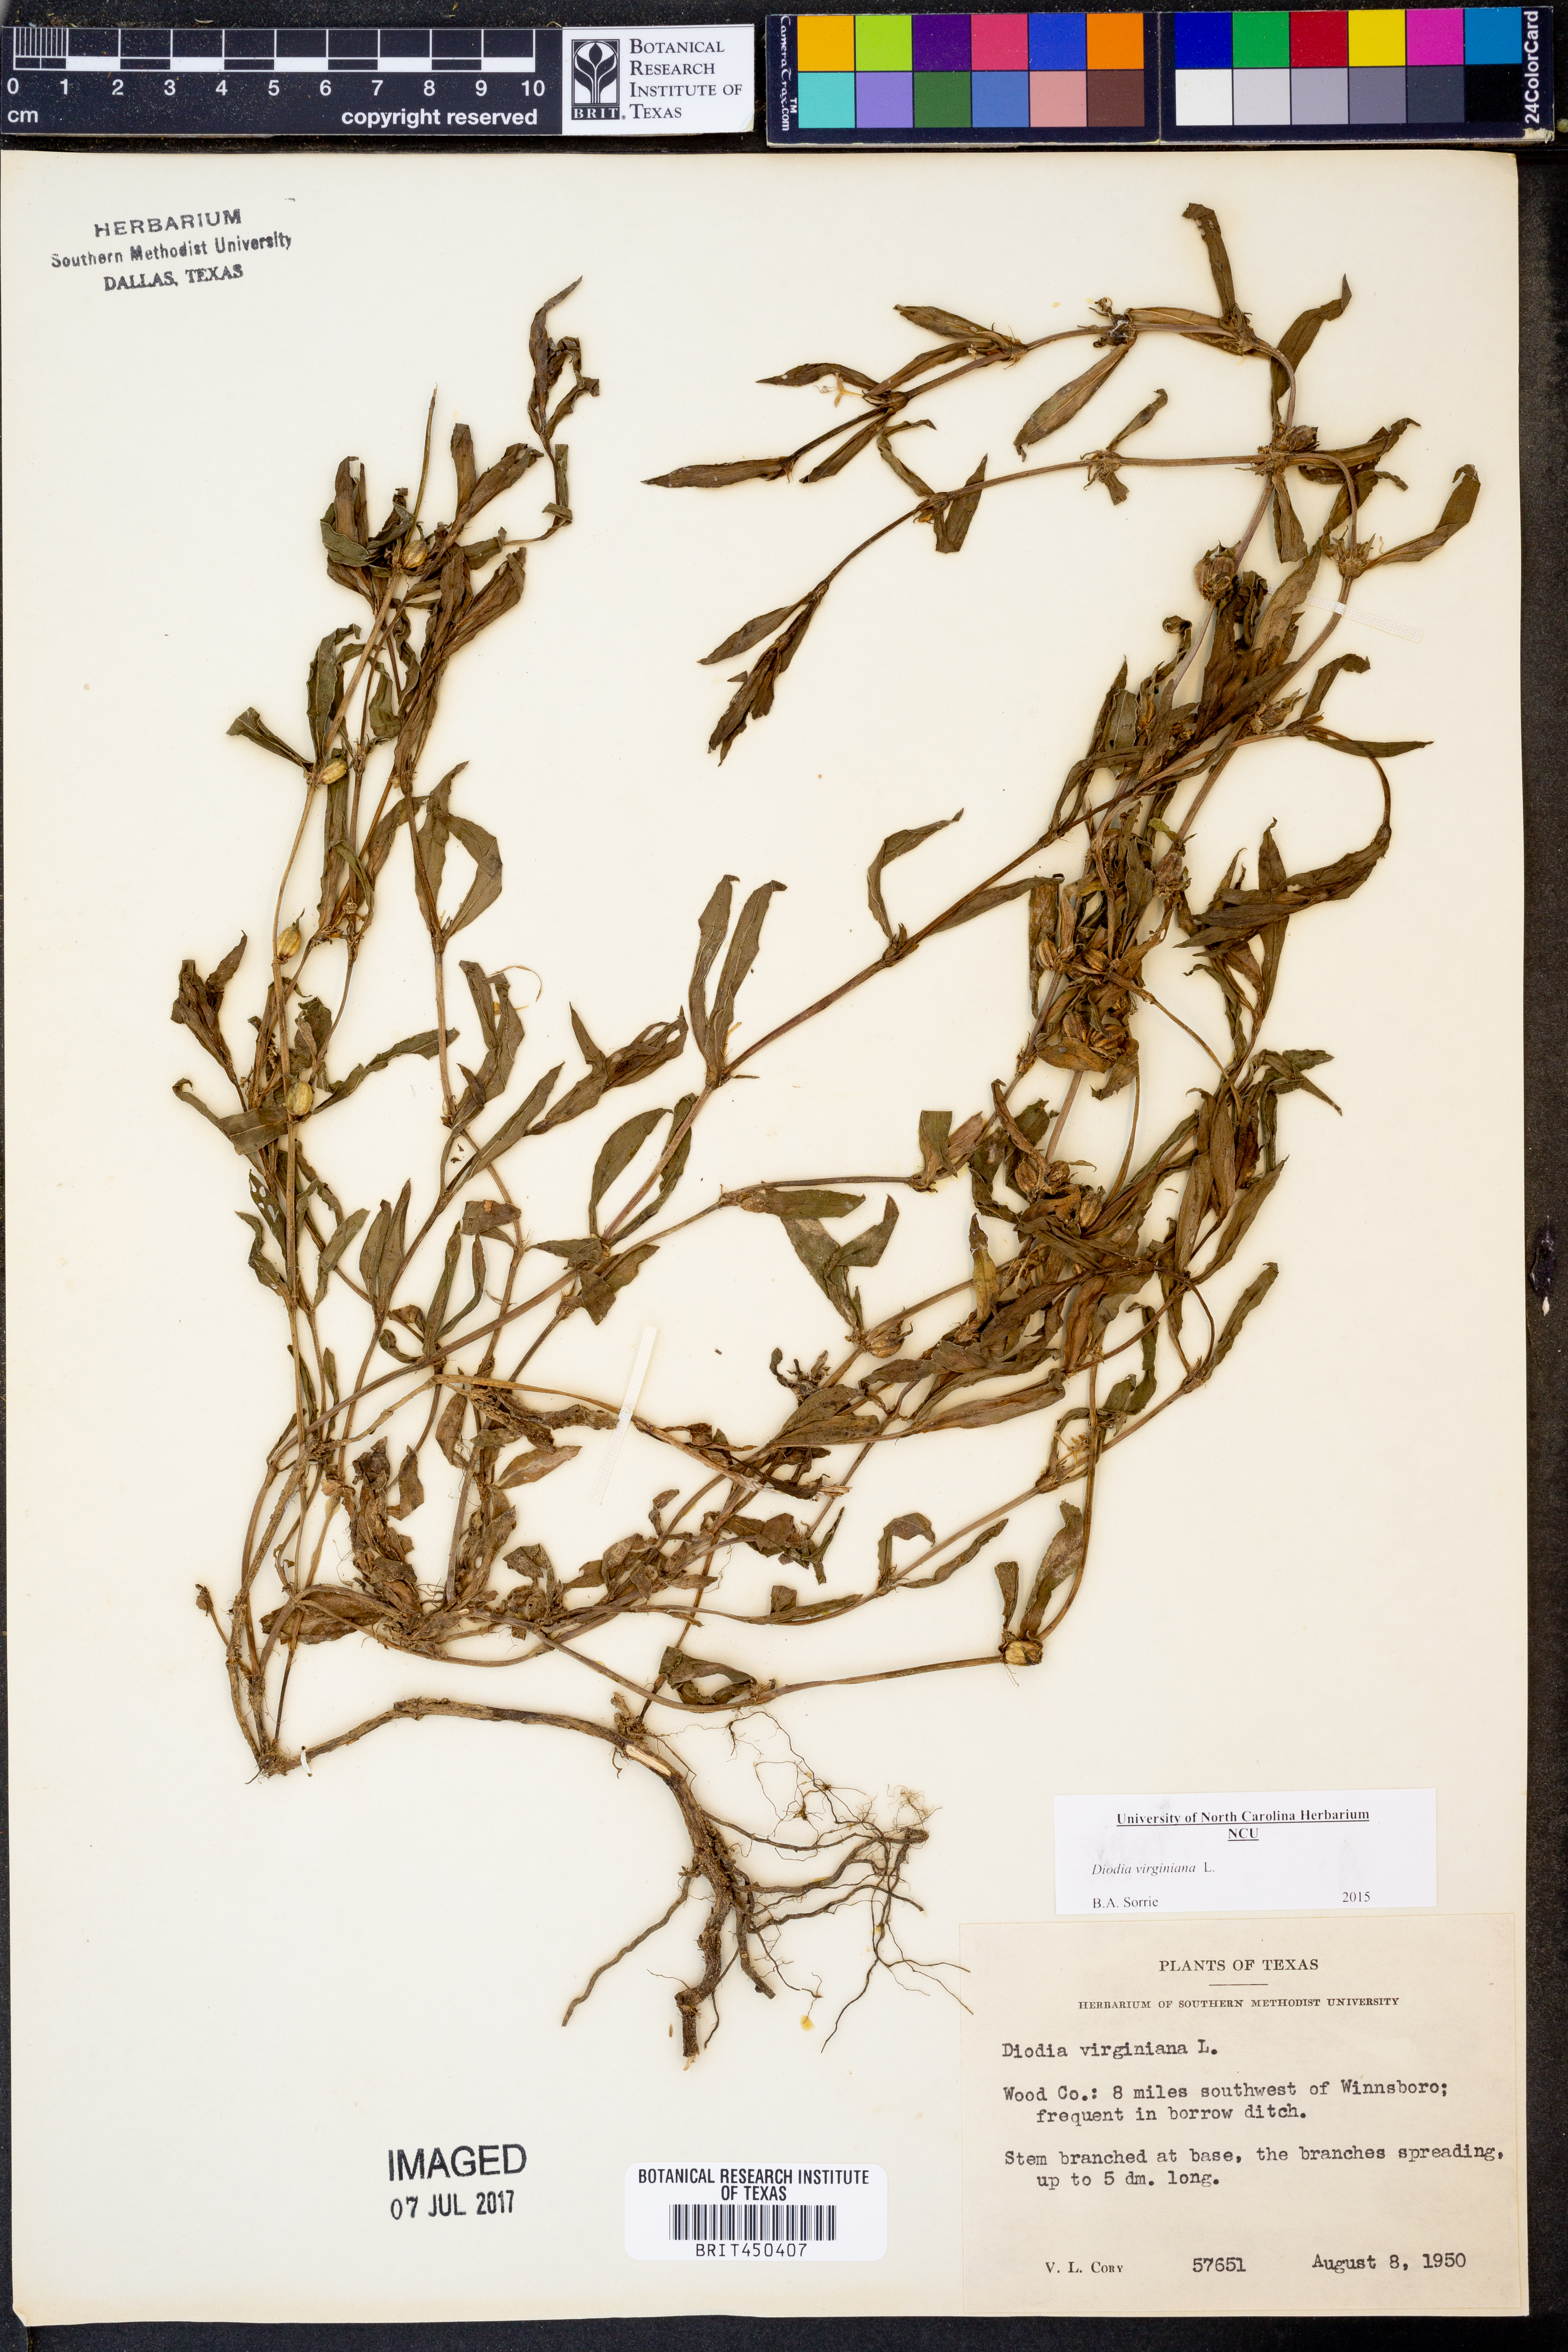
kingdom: Plantae
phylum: Tracheophyta
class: Magnoliopsida
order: Gentianales
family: Rubiaceae
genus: Diodia
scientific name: Diodia virginiana
